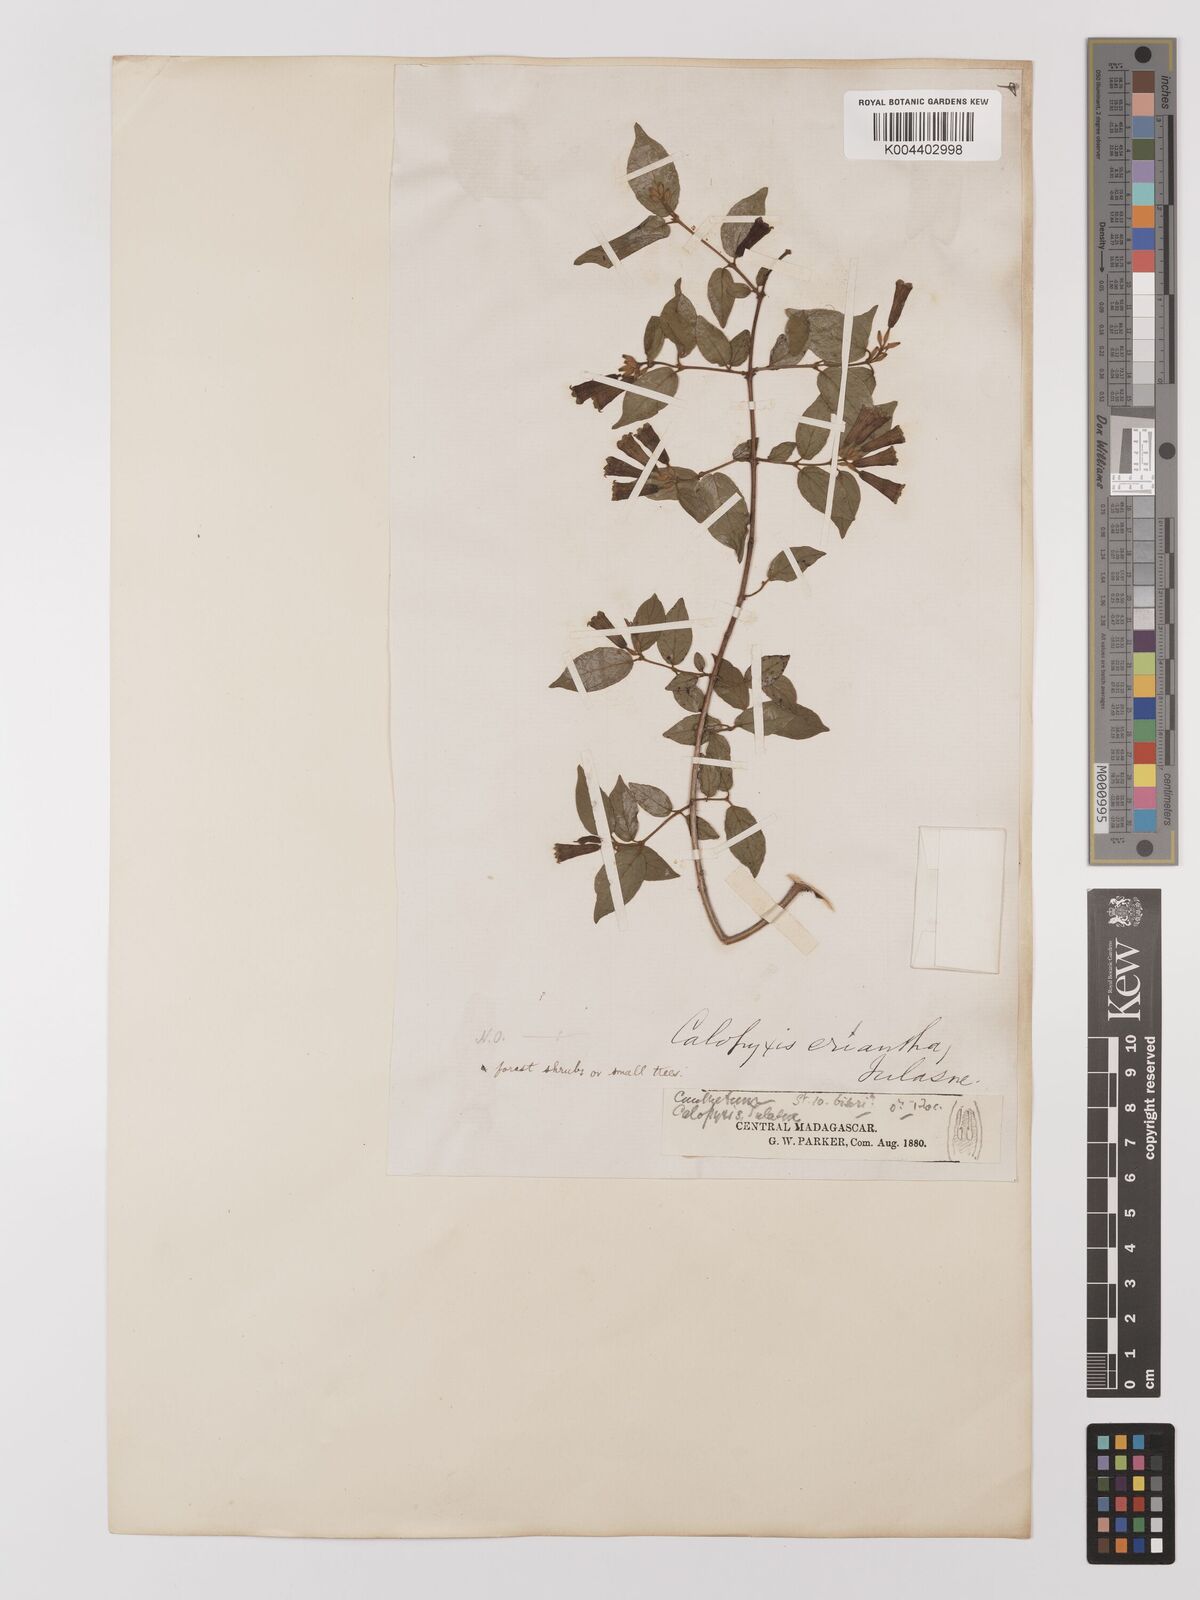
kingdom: Plantae
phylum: Tracheophyta
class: Magnoliopsida
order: Myrtales
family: Combretaceae
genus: Combretum
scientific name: Combretum longicollum
